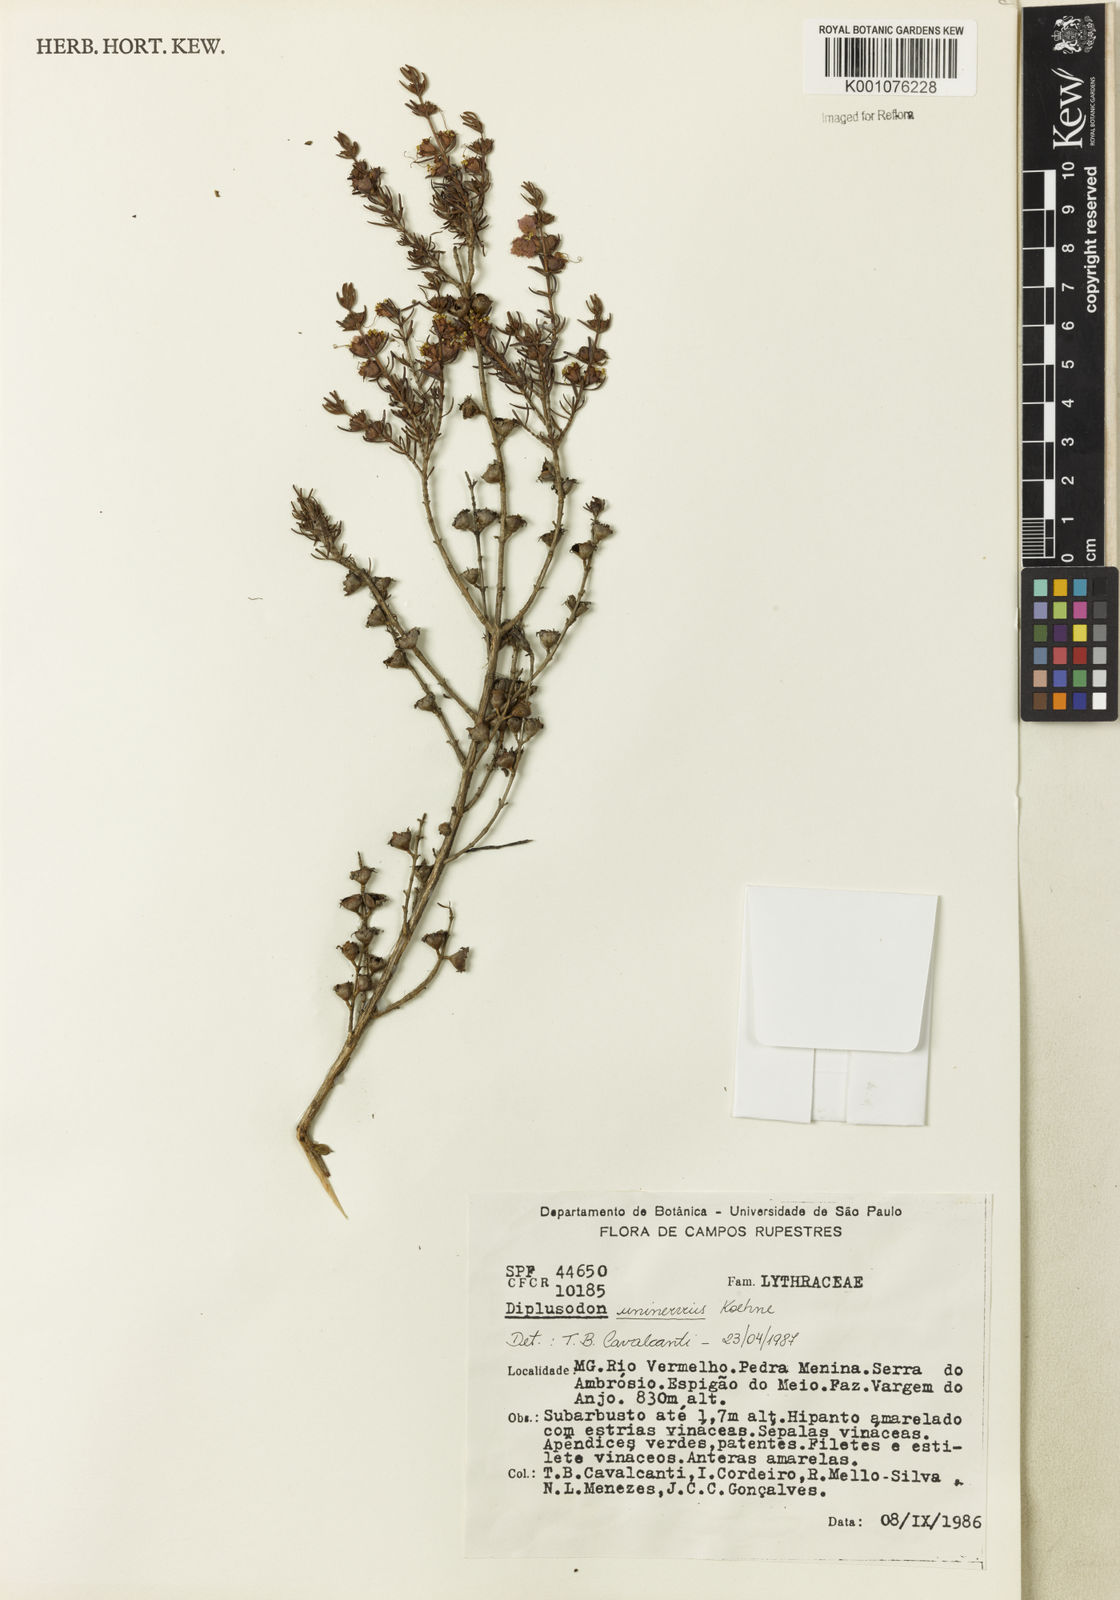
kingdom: Plantae
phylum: Tracheophyta
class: Magnoliopsida
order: Myrtales
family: Lythraceae
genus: Diplusodon
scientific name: Diplusodon uninervius
